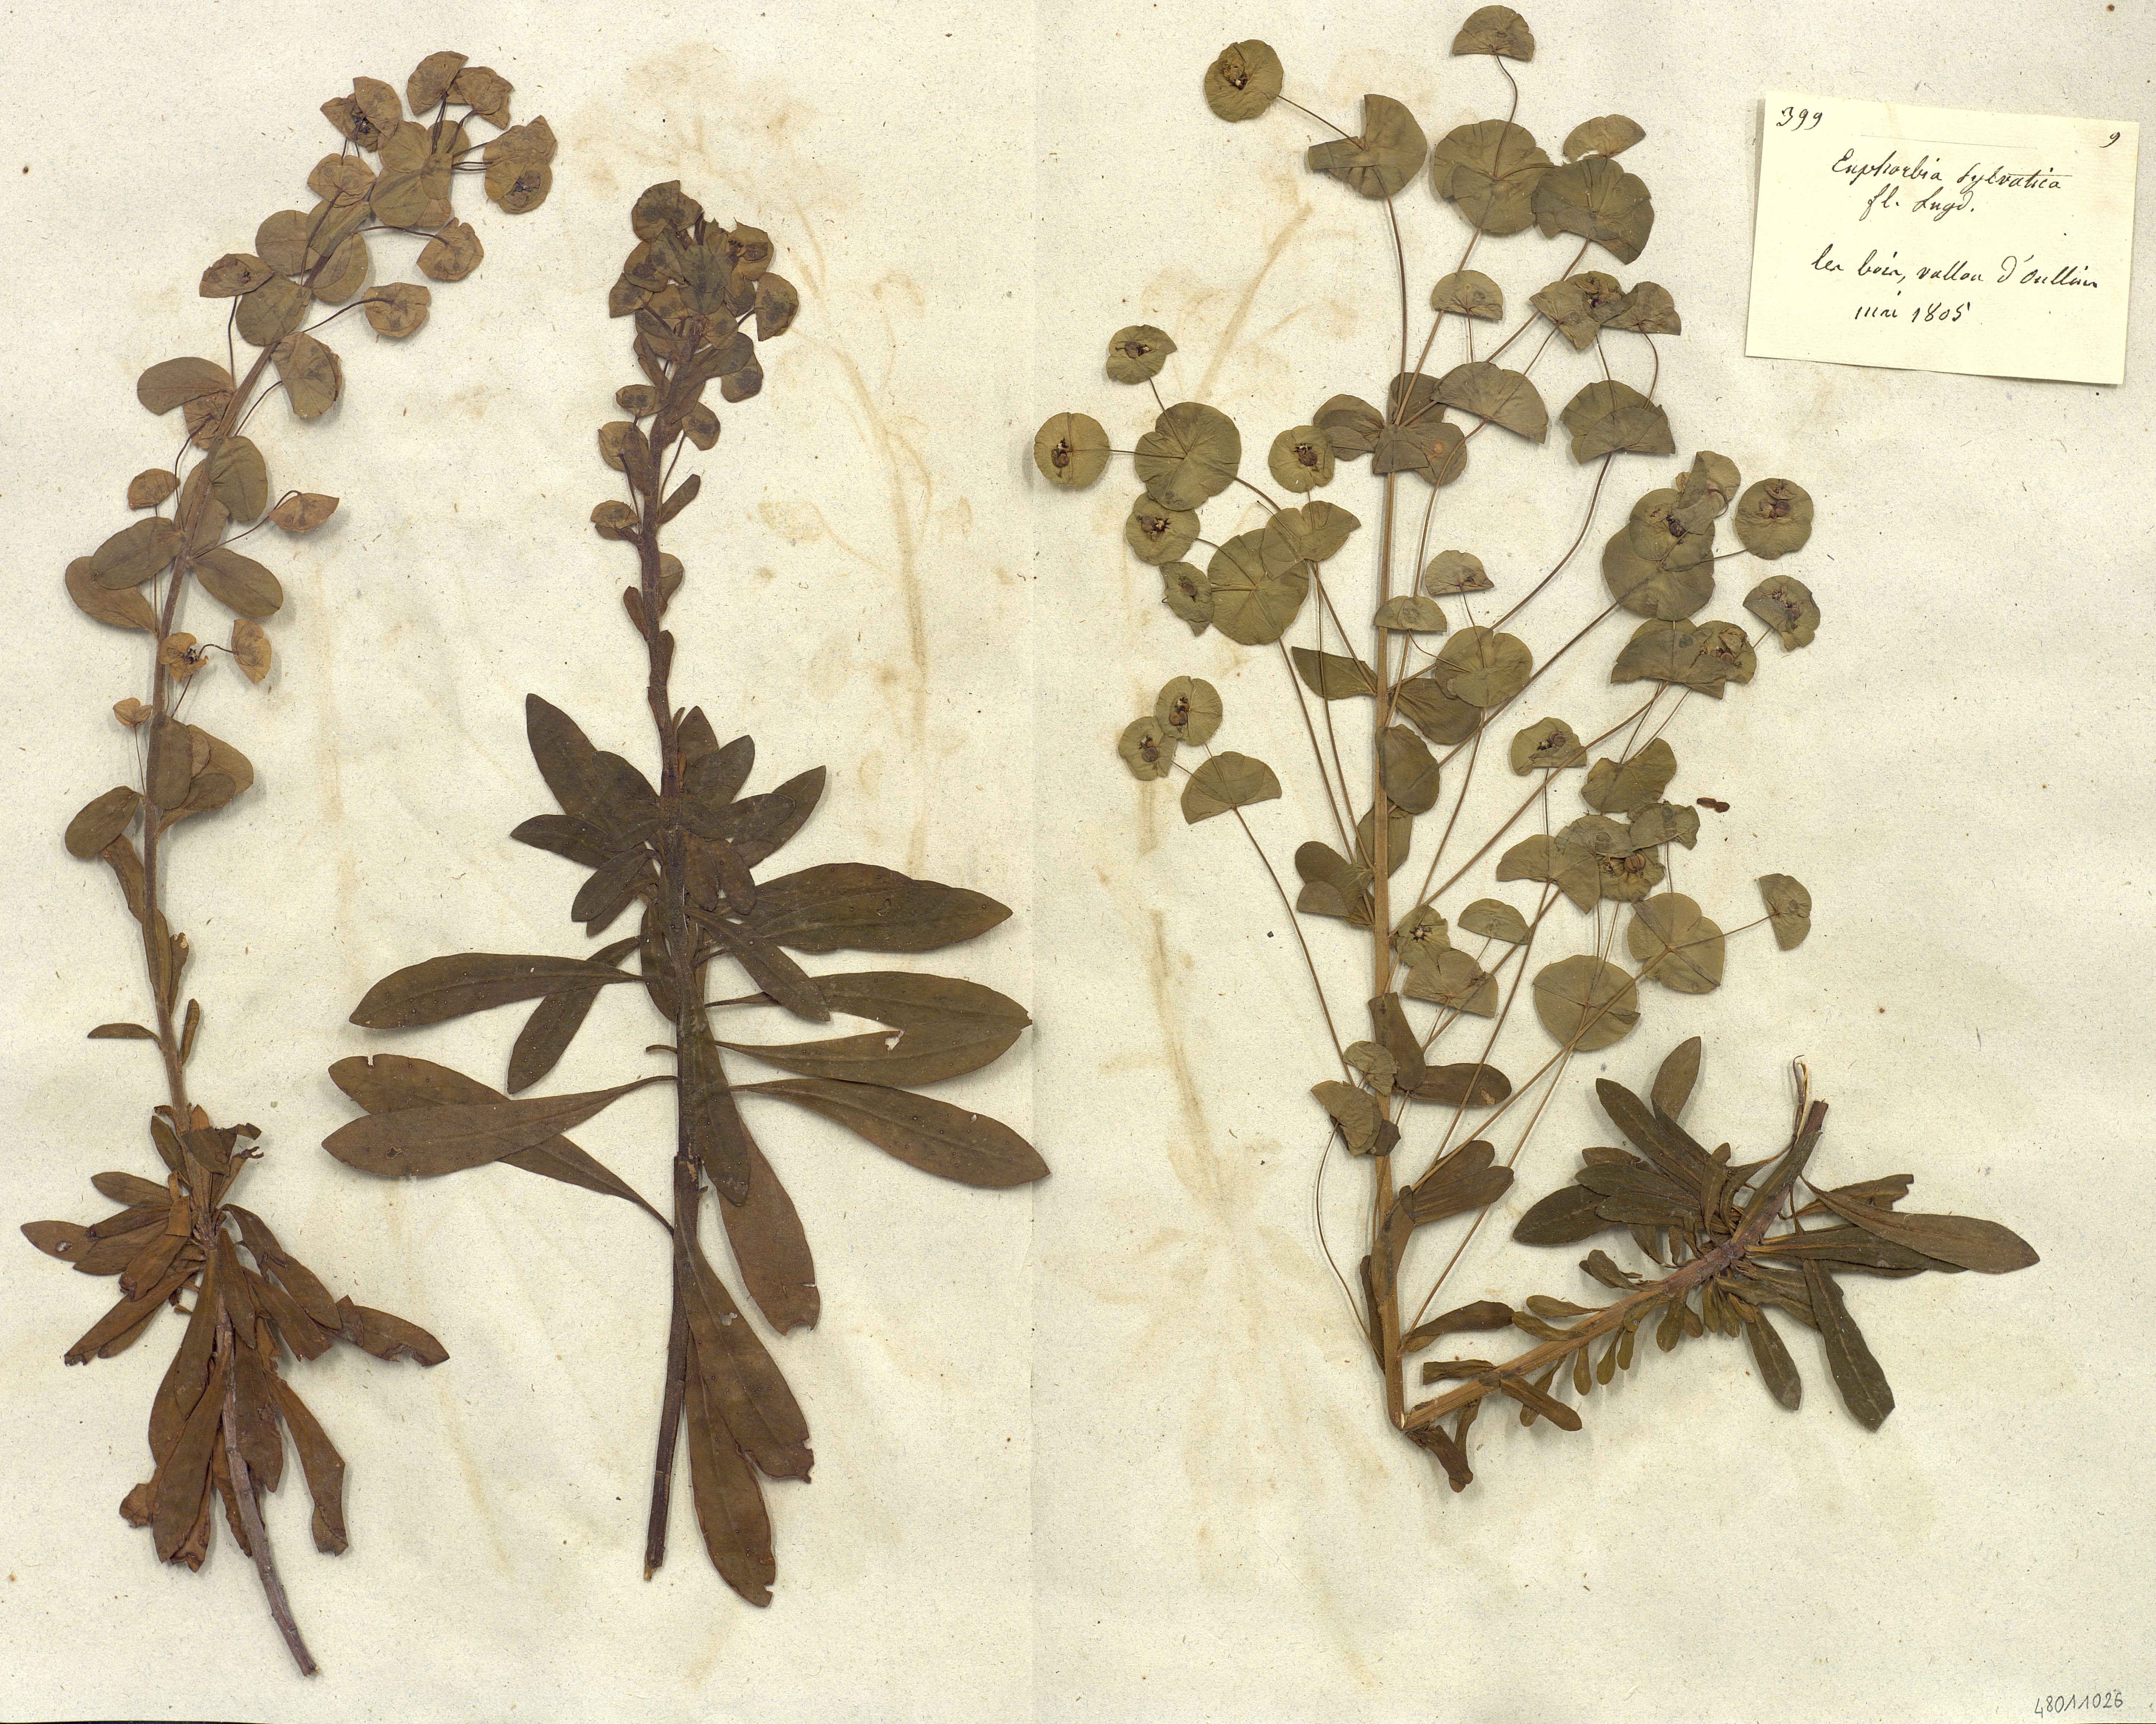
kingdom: Plantae
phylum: Tracheophyta
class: Magnoliopsida
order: Malpighiales
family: Euphorbiaceae
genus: Euphorbia
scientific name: Euphorbia
